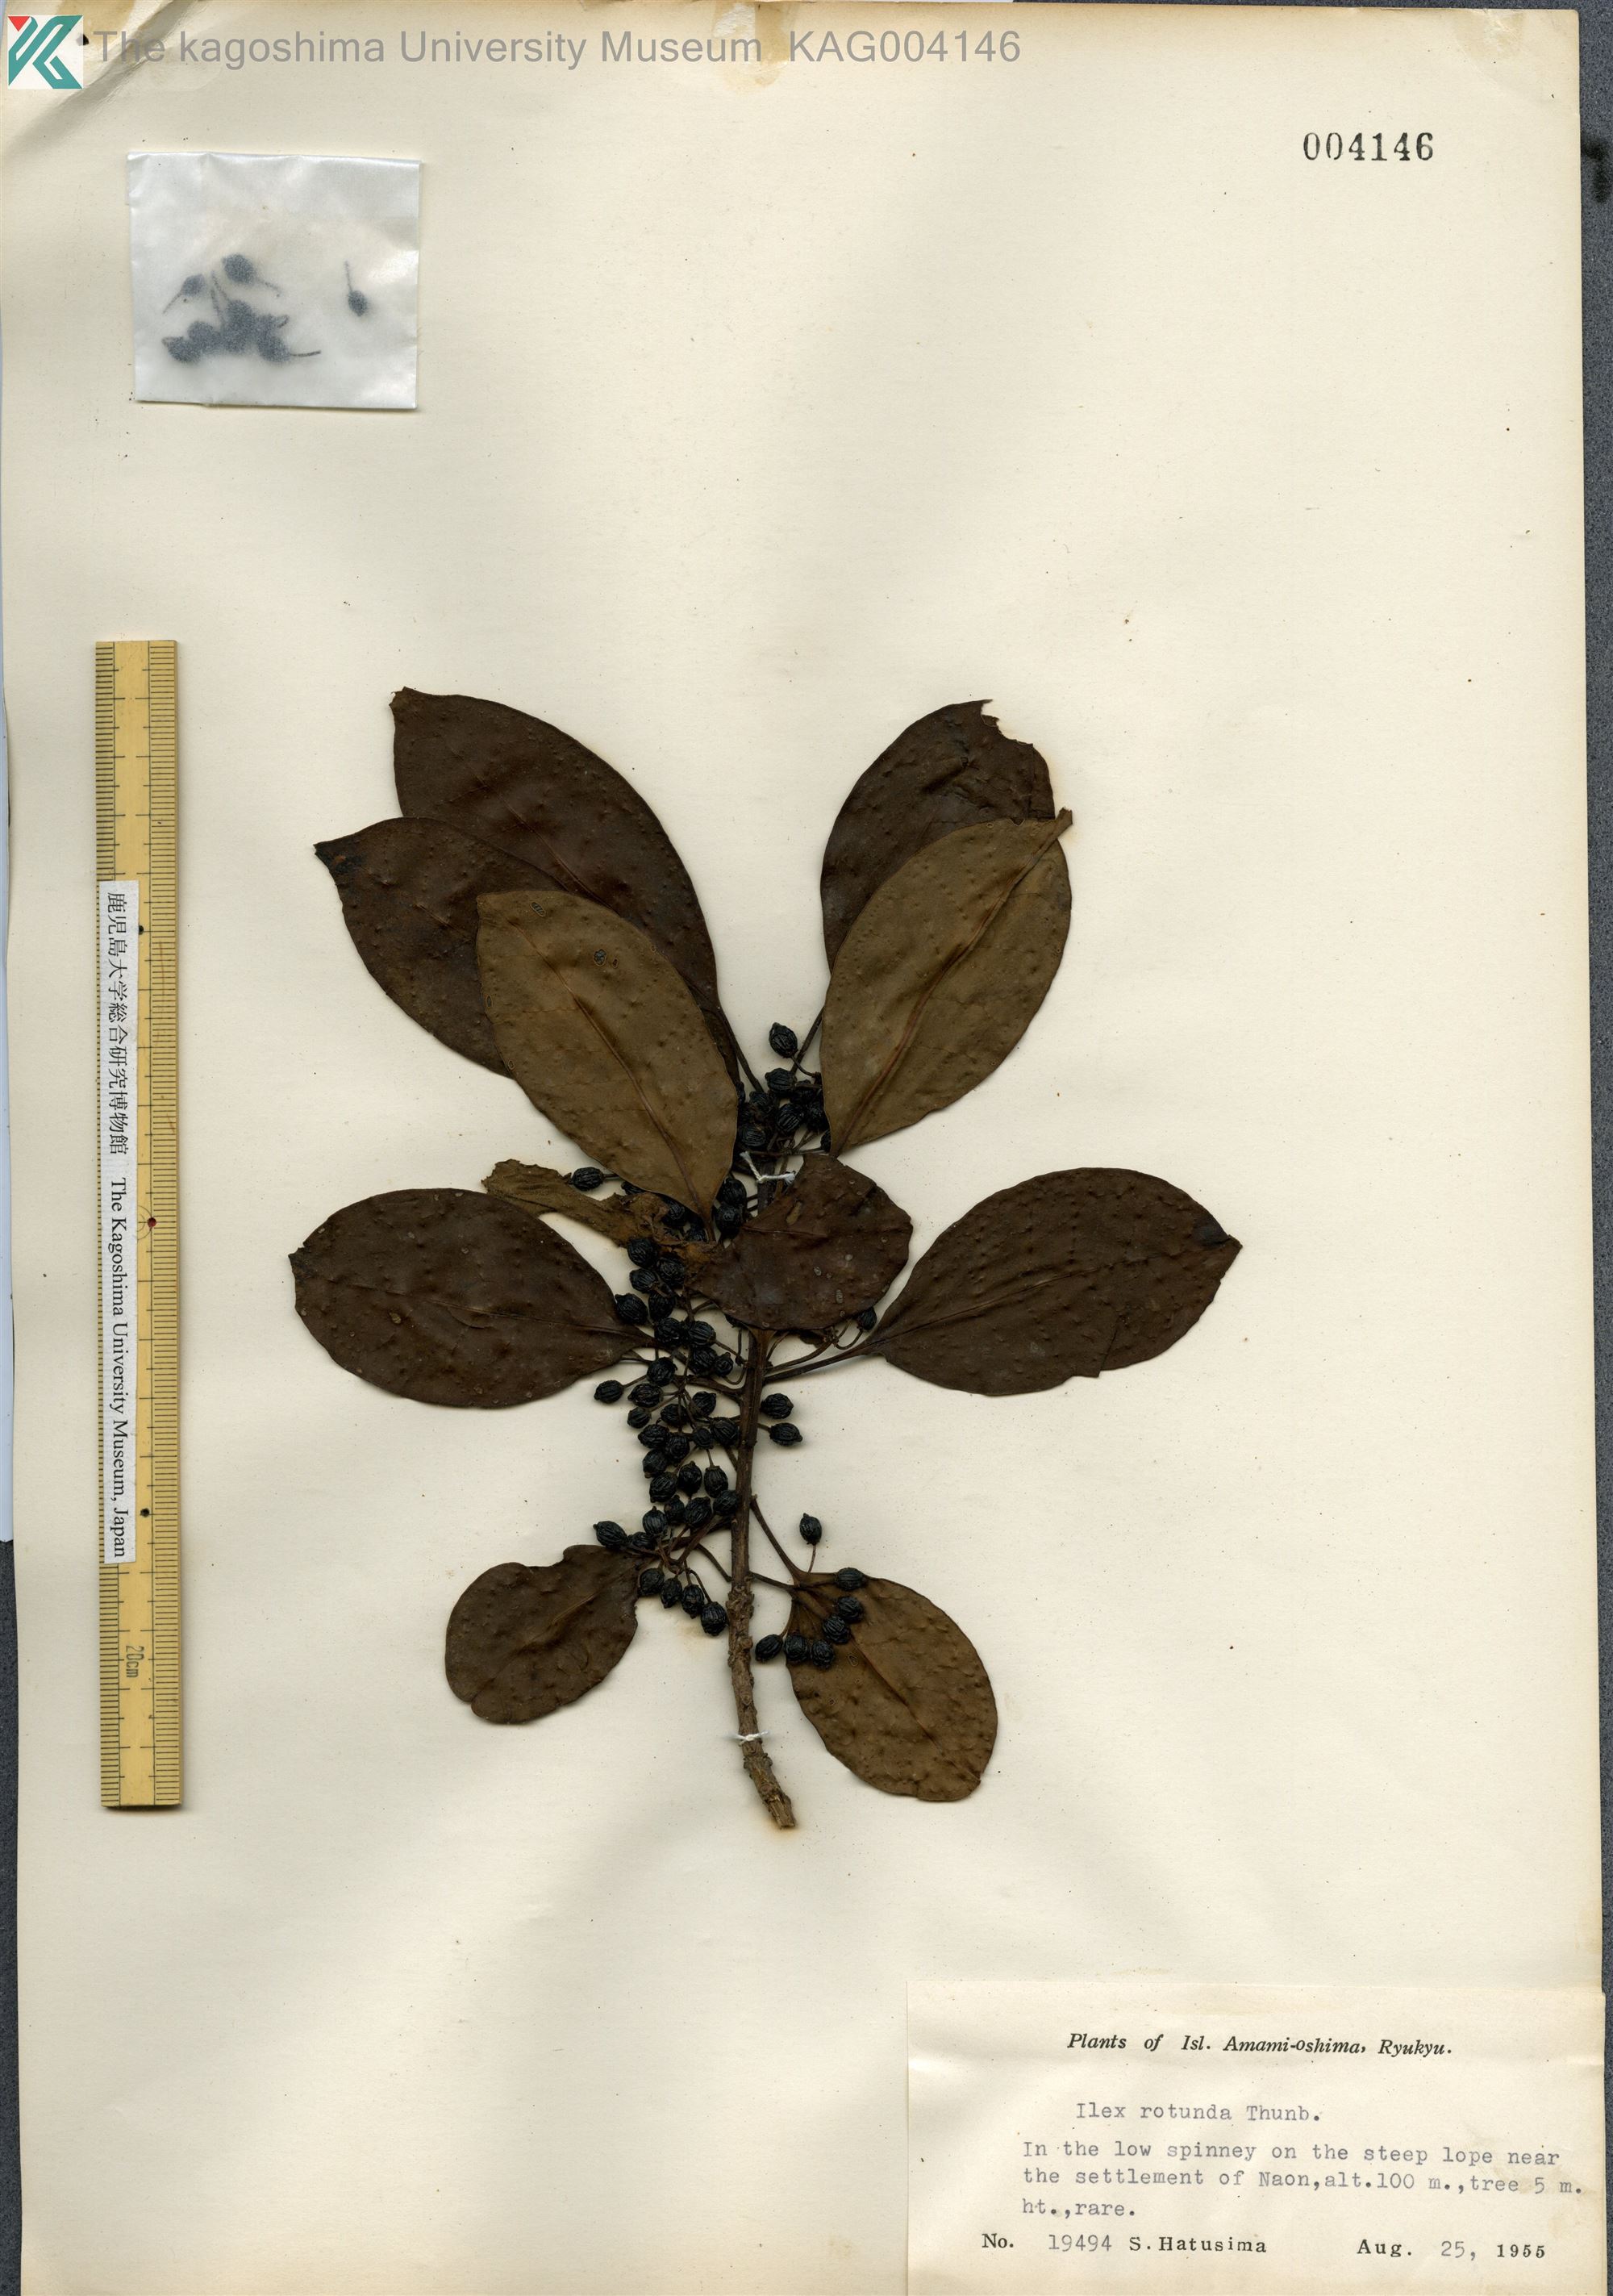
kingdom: Plantae
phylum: Tracheophyta
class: Magnoliopsida
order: Aquifoliales
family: Aquifoliaceae
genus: Ilex
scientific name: Ilex rotunda
